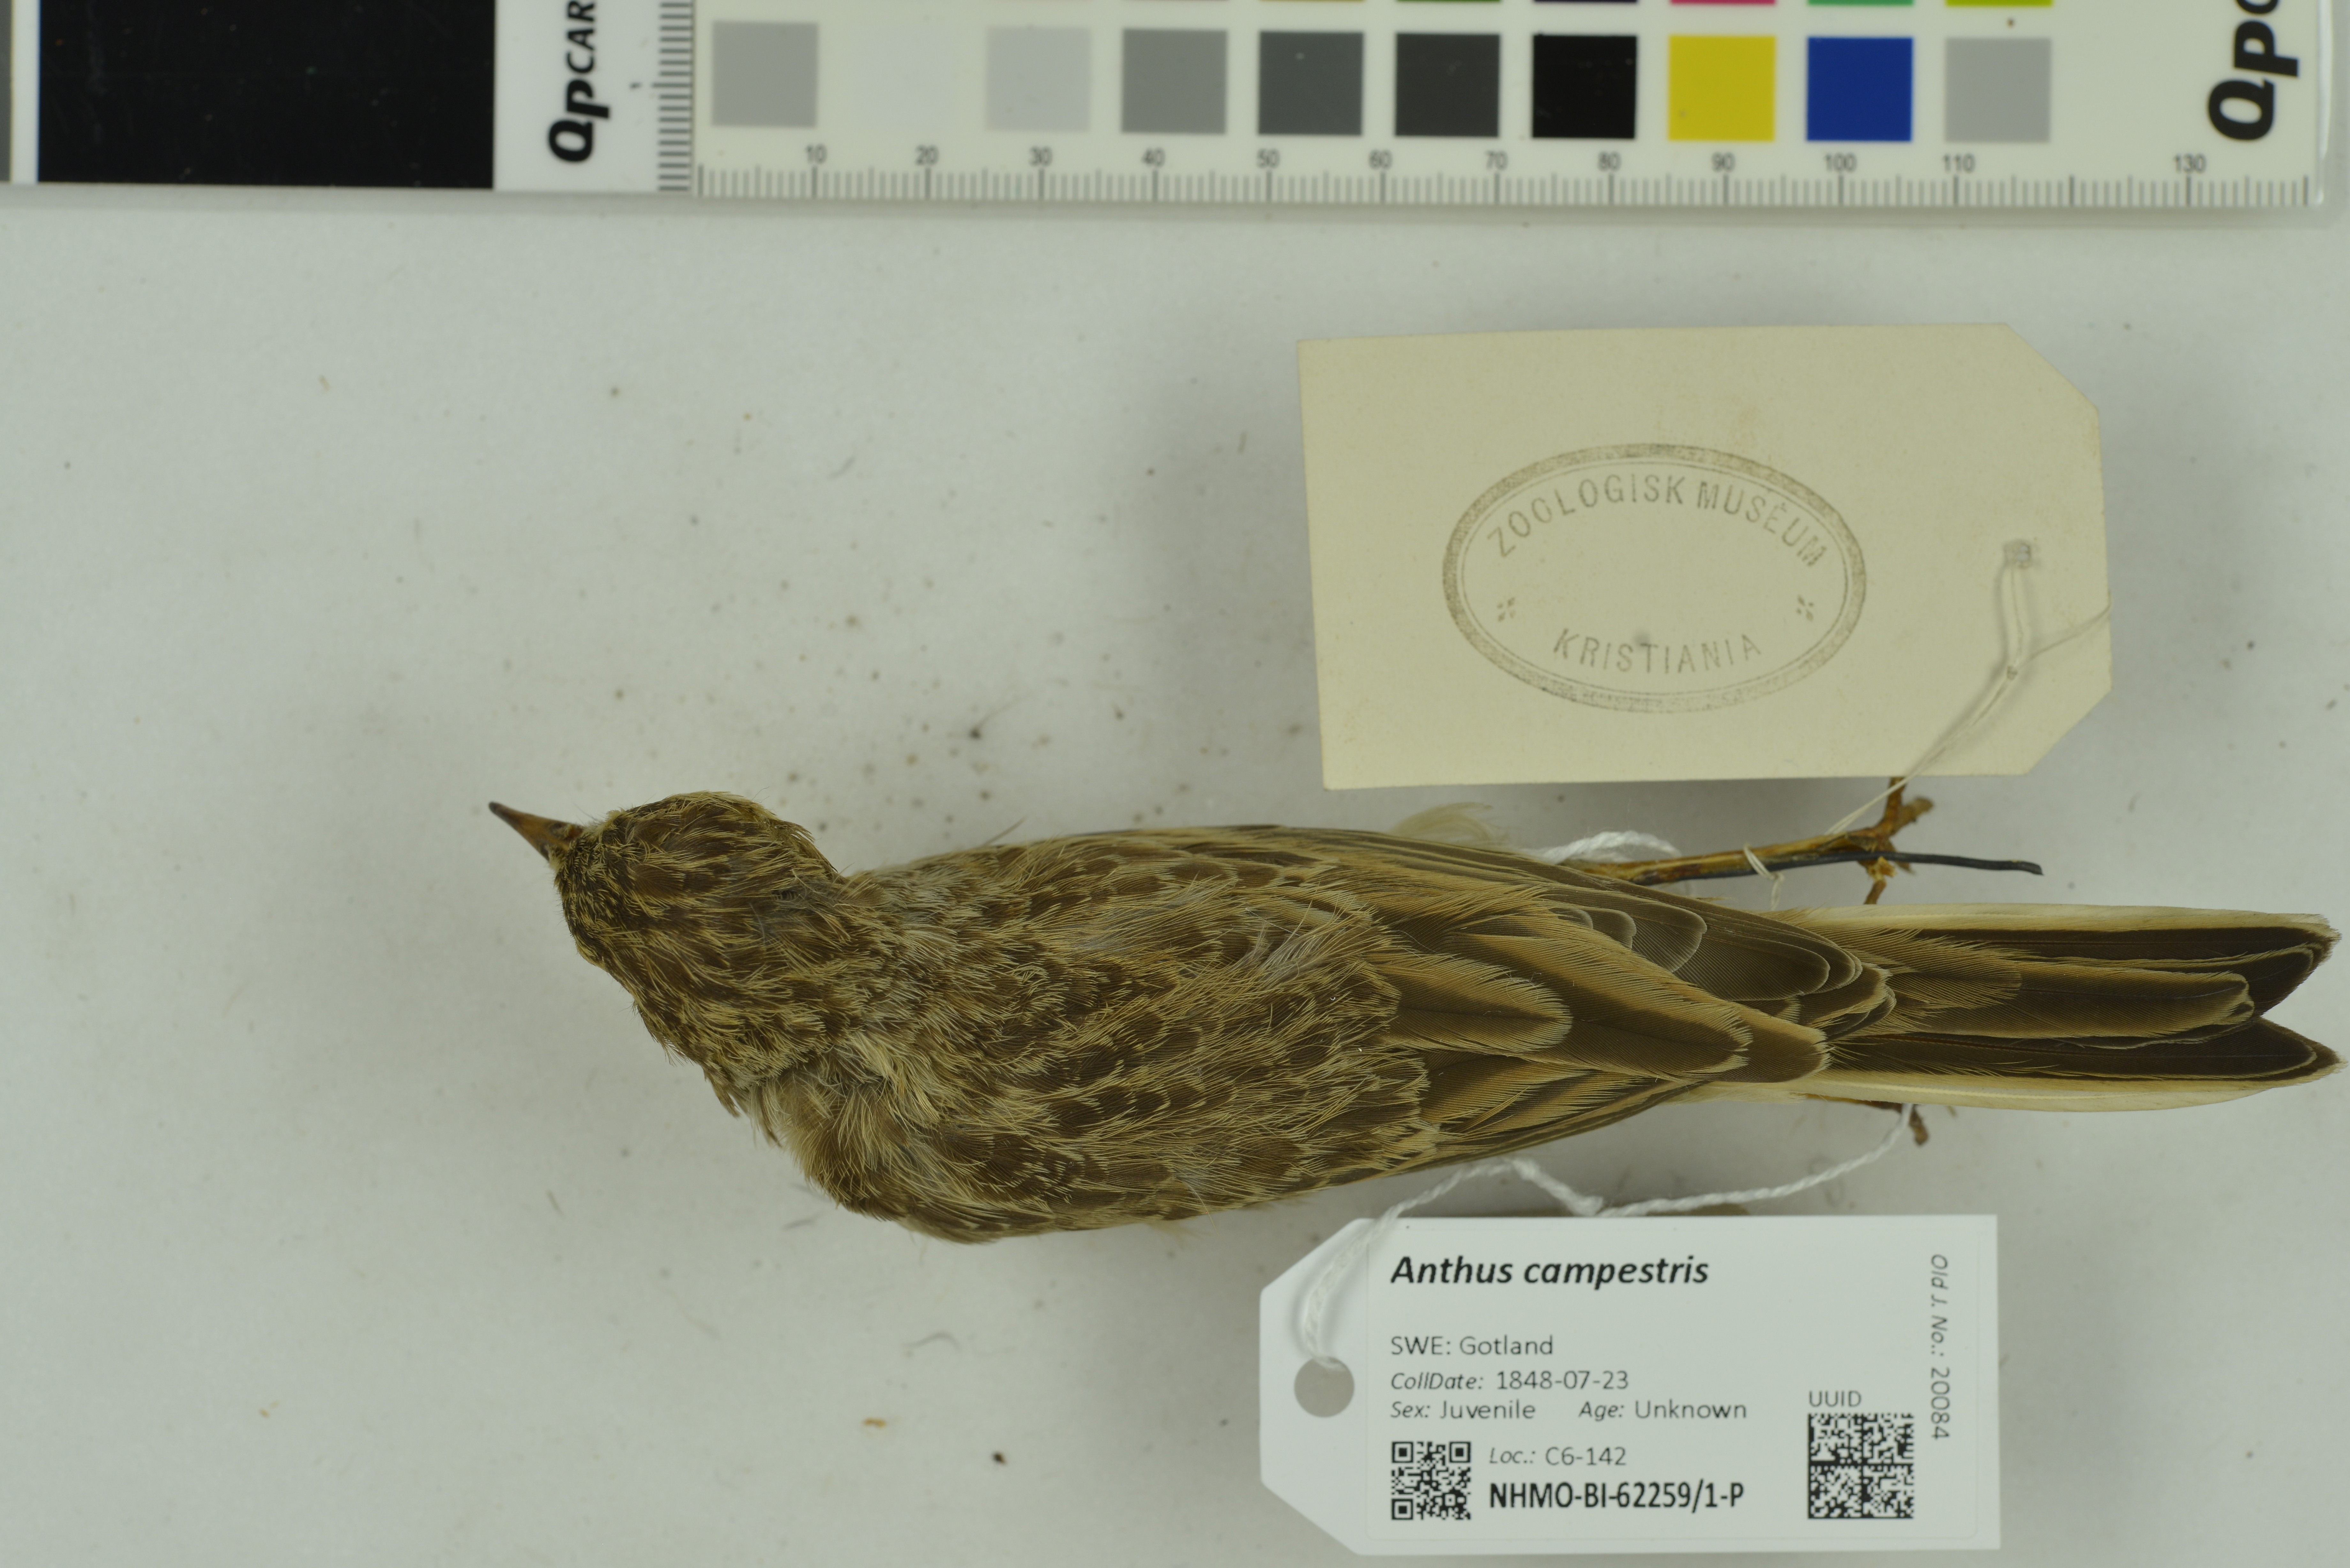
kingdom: Animalia
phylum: Chordata
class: Aves
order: Passeriformes
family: Motacillidae
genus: Anthus
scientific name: Anthus campestris
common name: Tawny pipit
